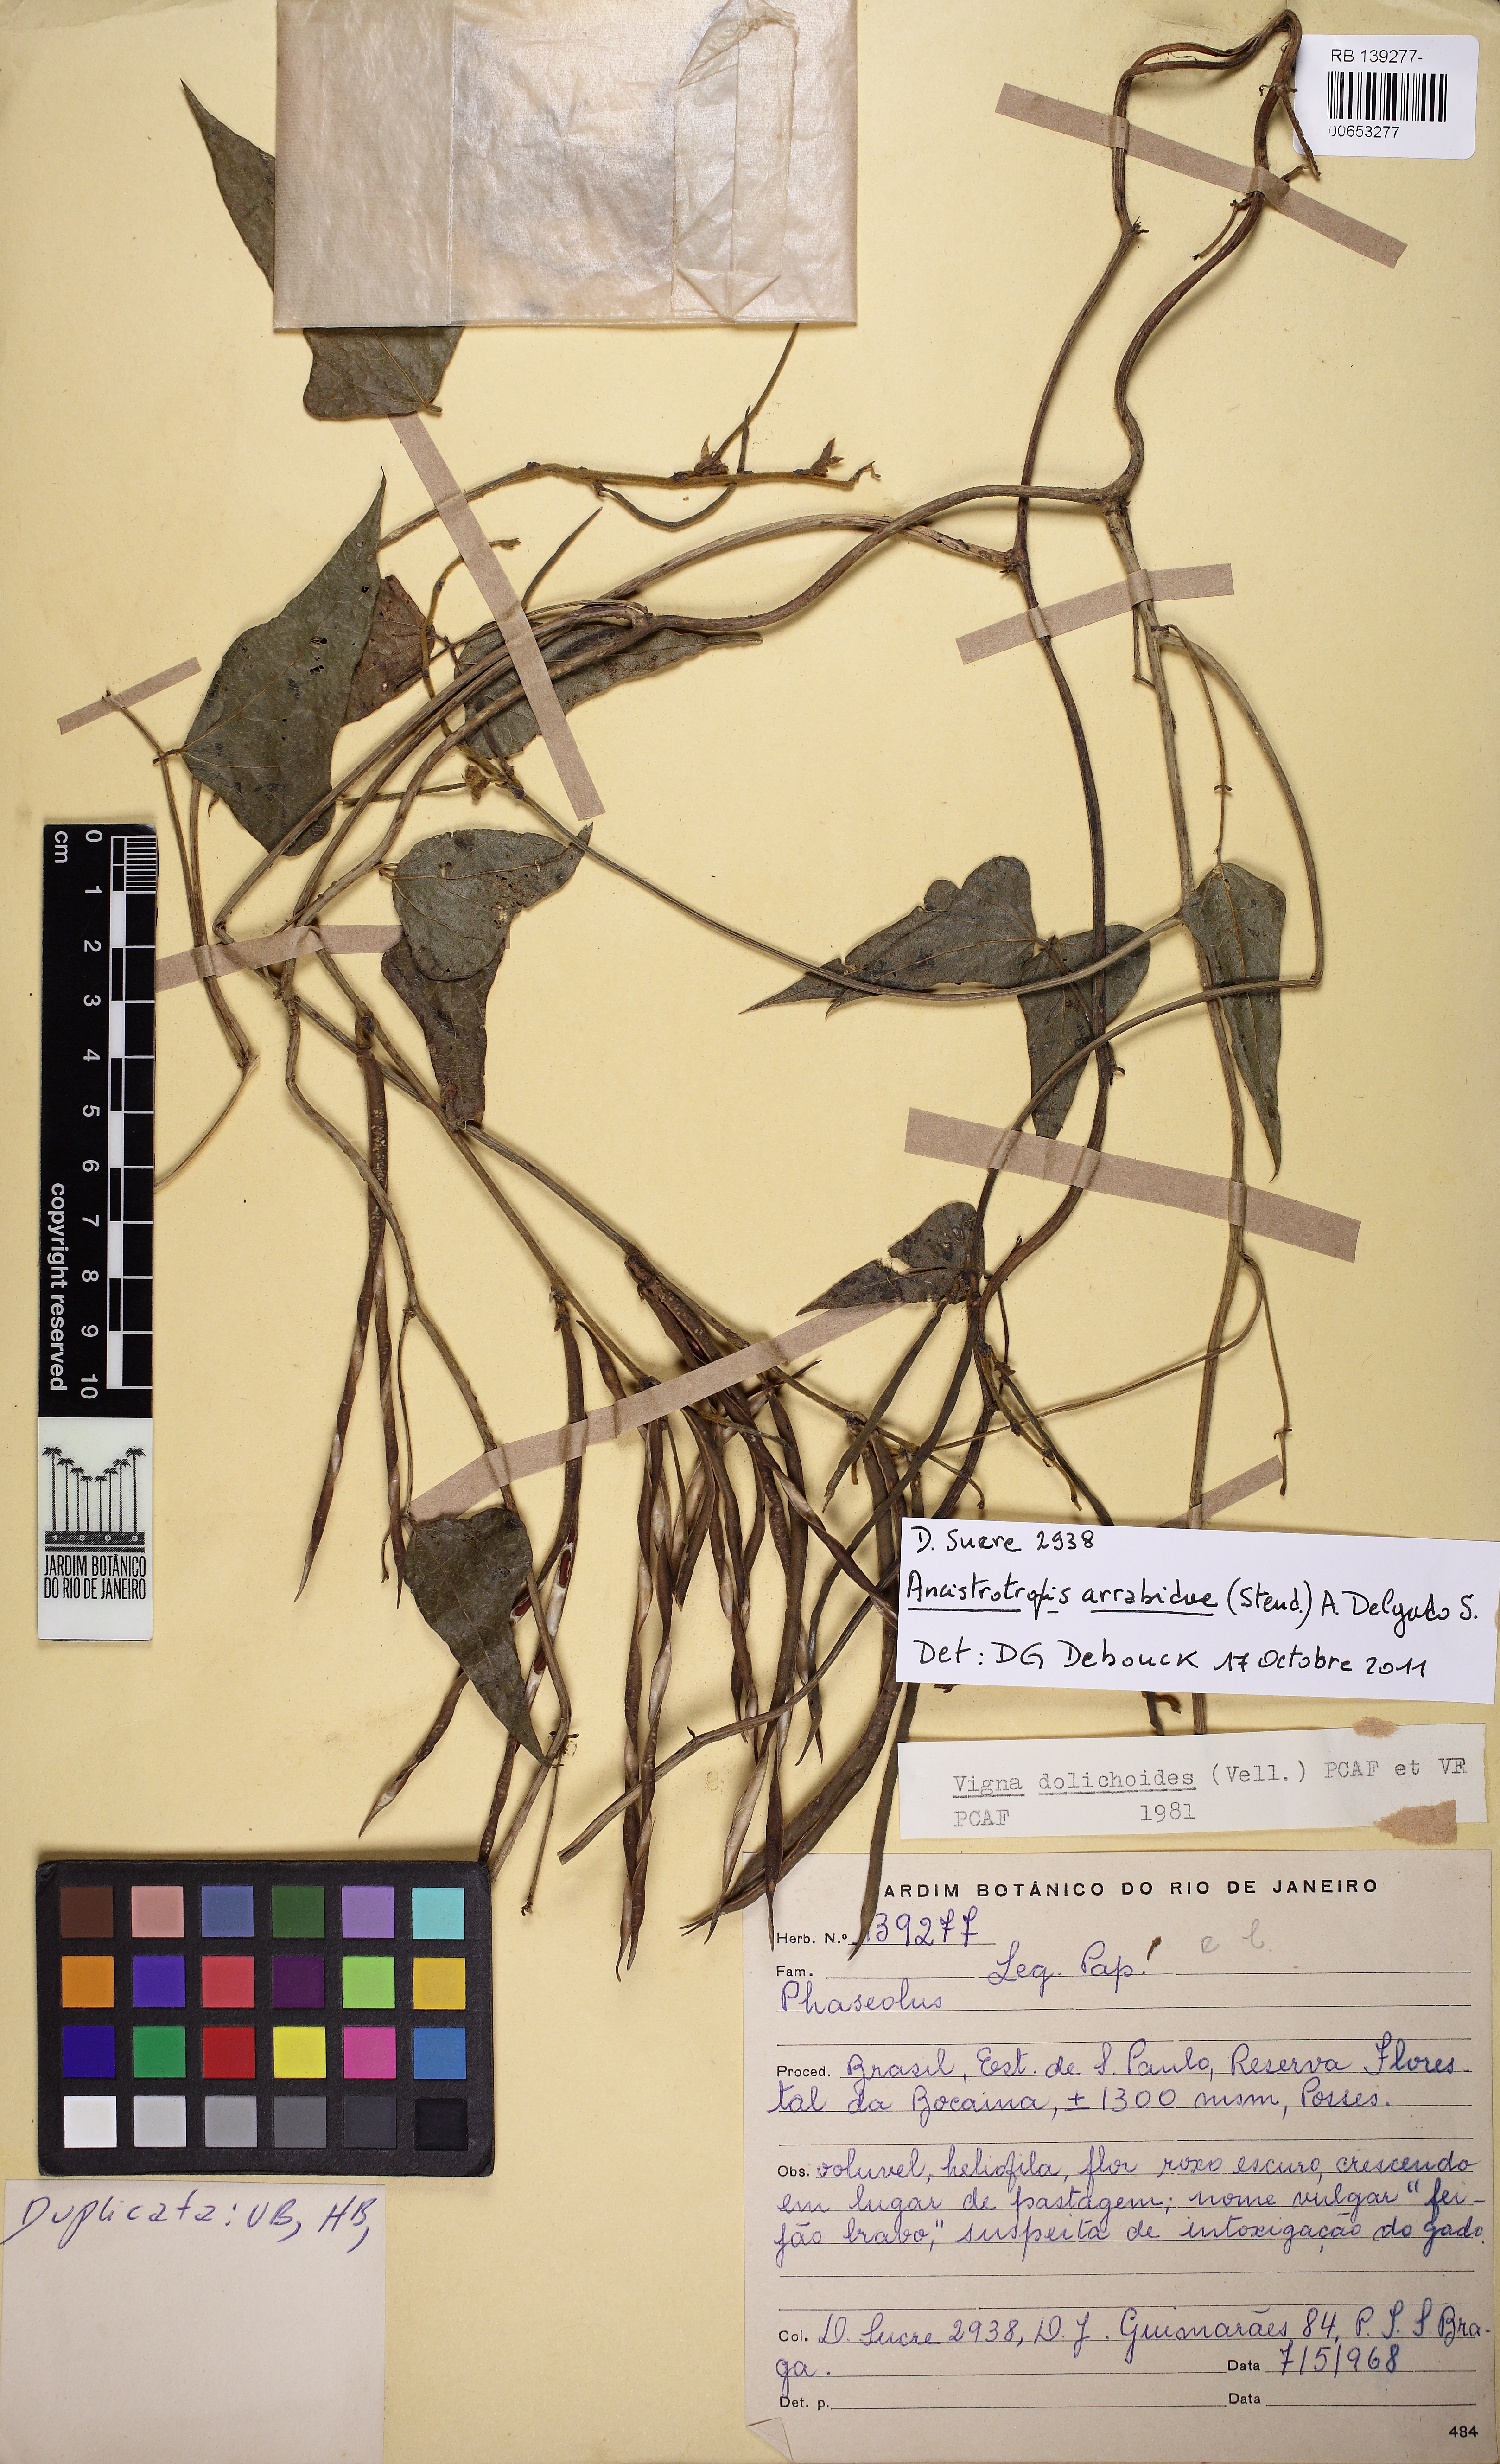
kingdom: Plantae
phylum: Tracheophyta
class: Magnoliopsida
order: Fabales
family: Fabaceae
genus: Phaseolus
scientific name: Phaseolus dolichoides
